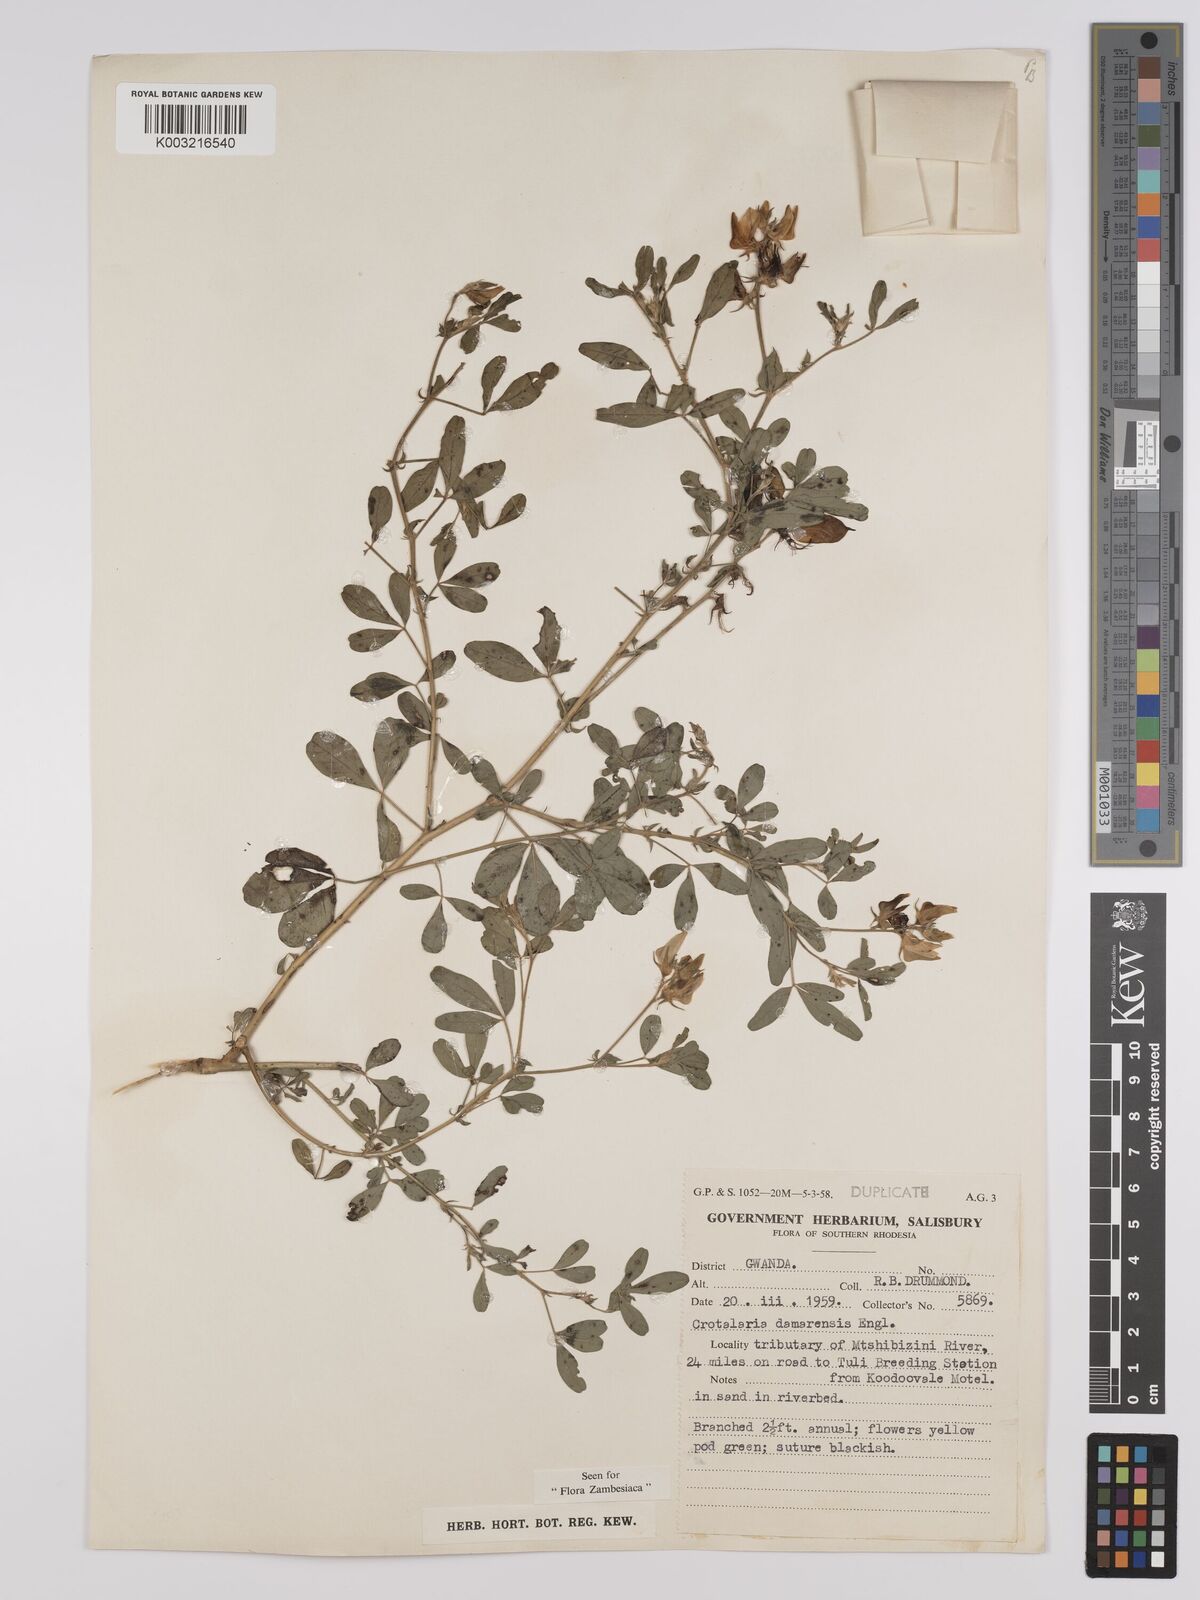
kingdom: Plantae
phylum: Tracheophyta
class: Magnoliopsida
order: Fabales
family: Fabaceae
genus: Crotalaria
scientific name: Crotalaria damarensis
